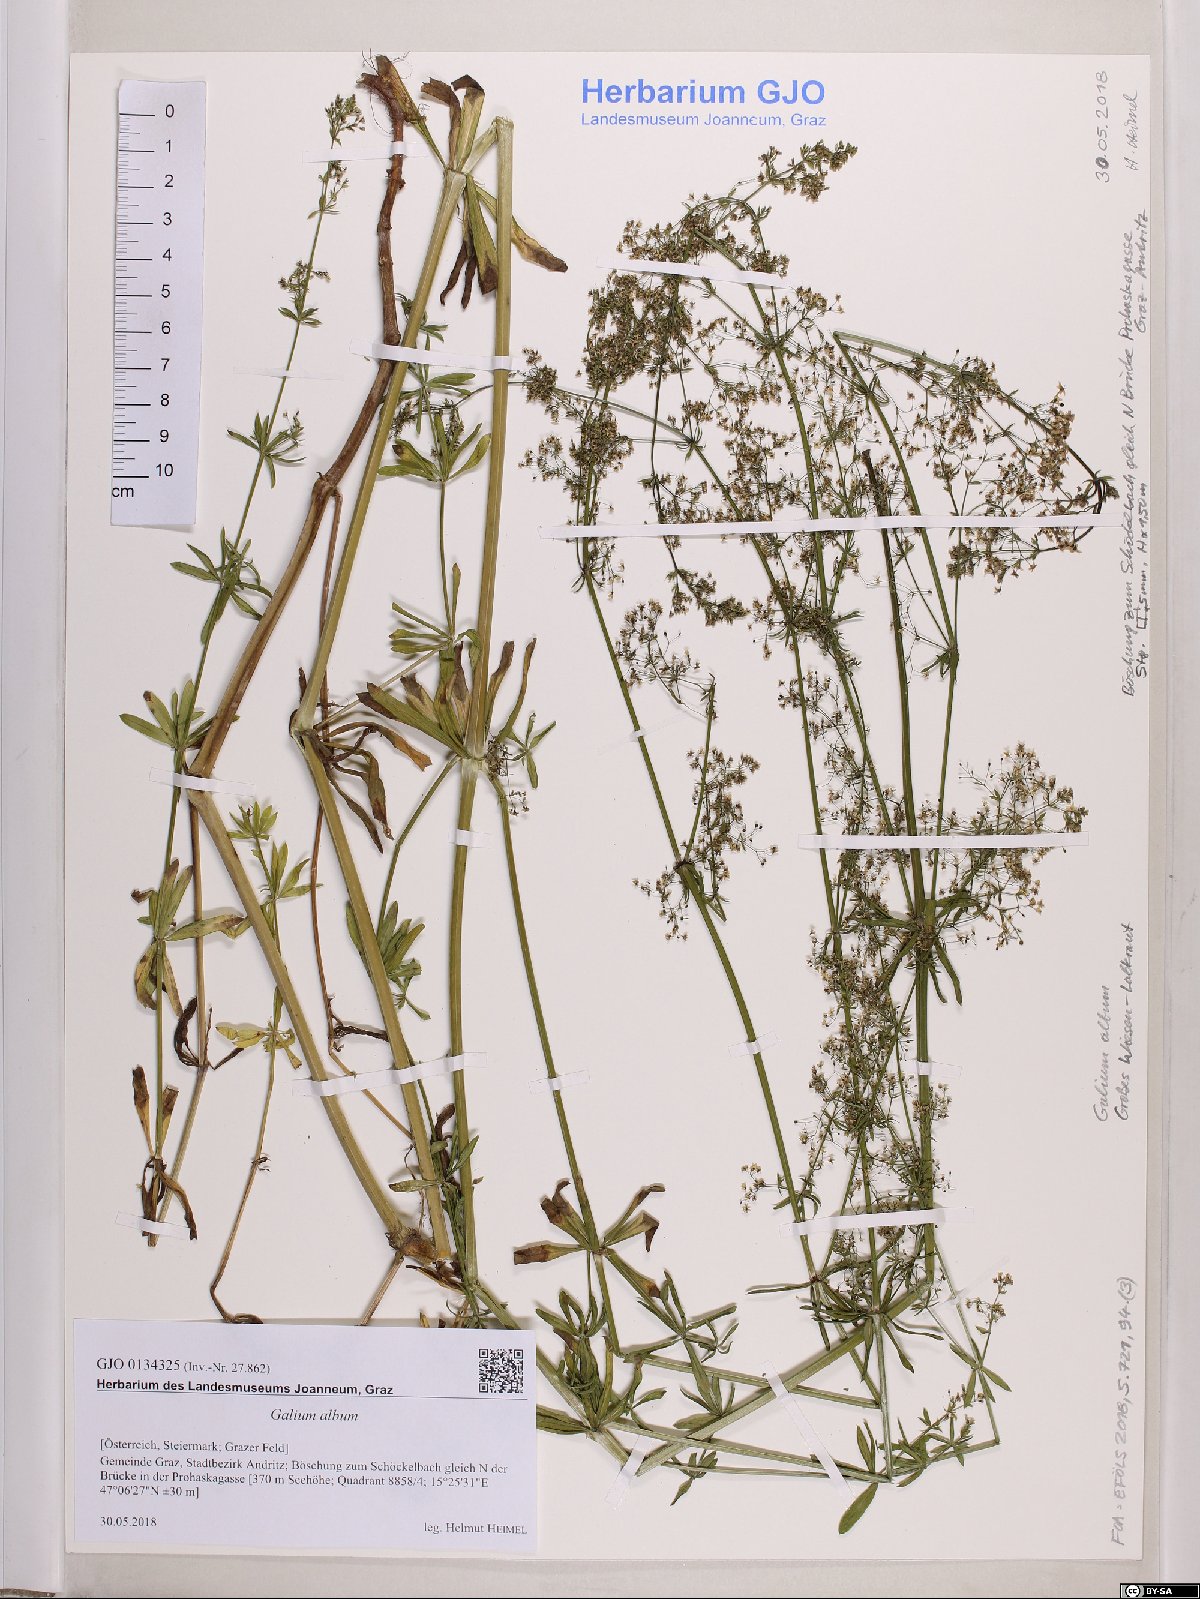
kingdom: Plantae
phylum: Tracheophyta
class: Magnoliopsida
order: Gentianales
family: Rubiaceae
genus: Galium
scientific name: Galium album
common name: White bedstraw
